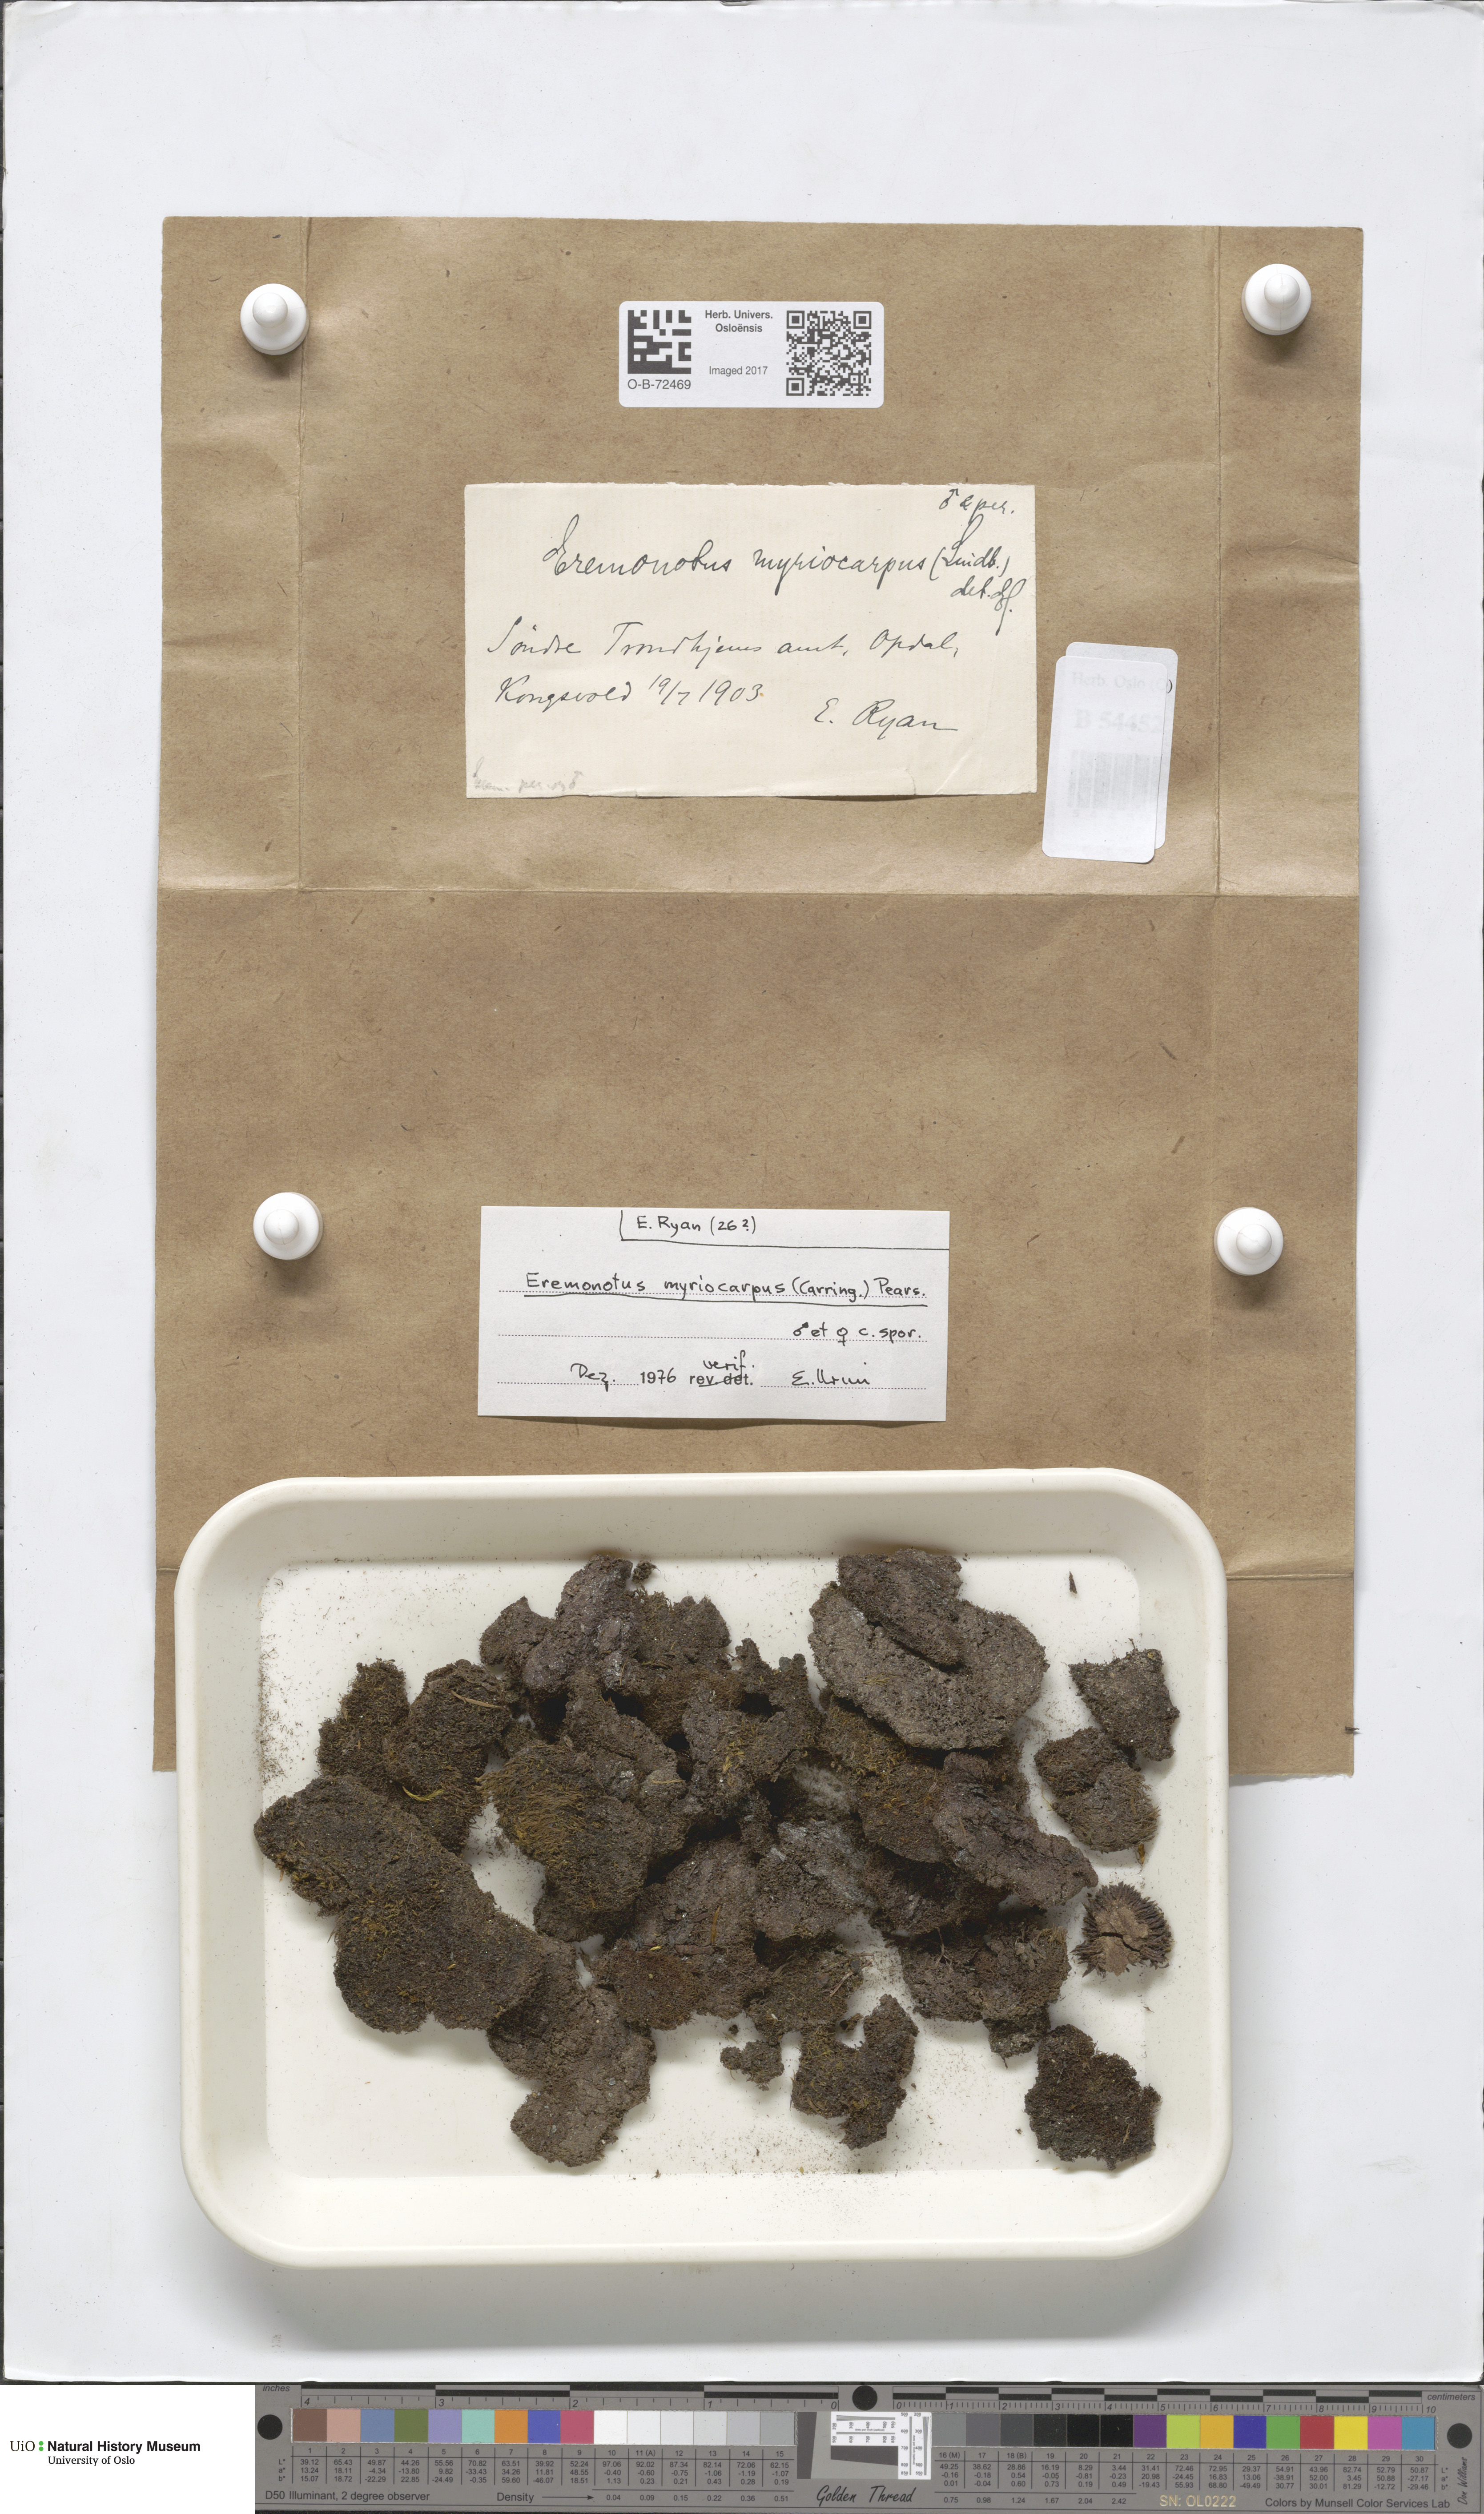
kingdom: Plantae
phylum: Marchantiophyta
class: Jungermanniopsida
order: Jungermanniales
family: Jungermanniaceae
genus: Eremonotus
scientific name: Eremonotus myriocarpus
